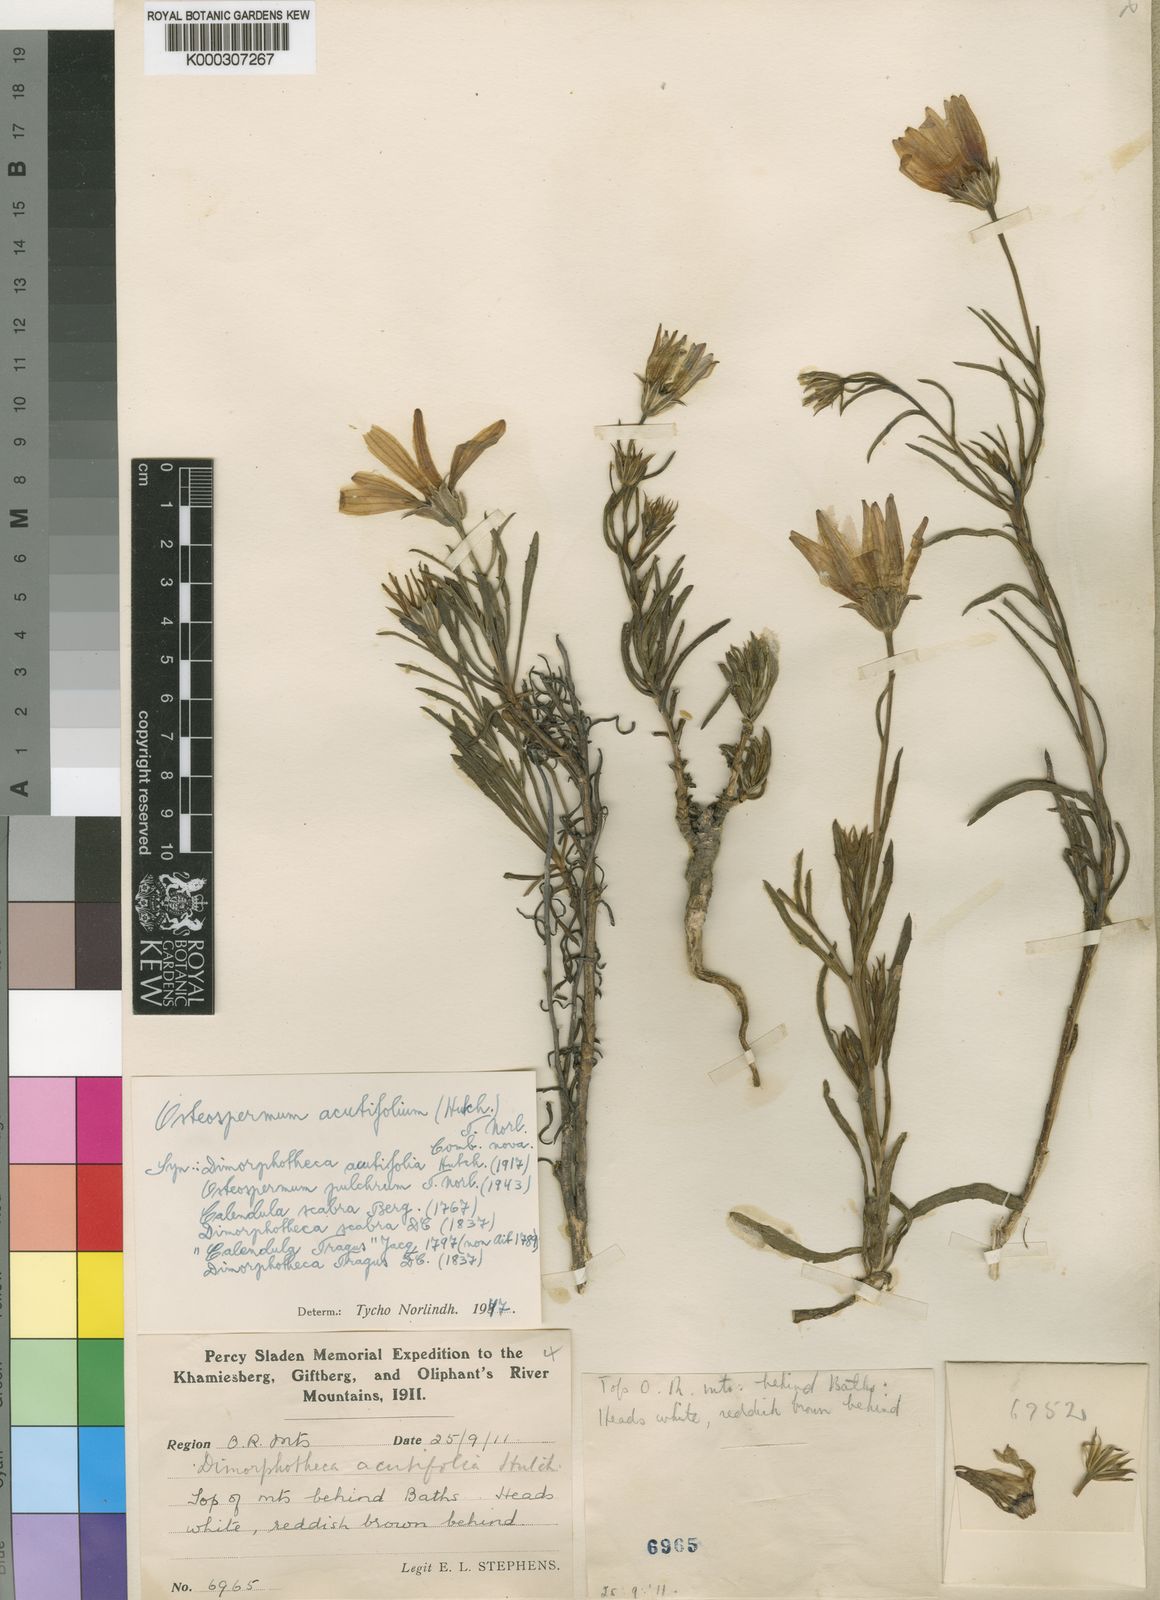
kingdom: Plantae
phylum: Tracheophyta
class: Magnoliopsida
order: Asterales
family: Asteraceae
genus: Dimorphotheca
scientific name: Dimorphotheca acutifolia
